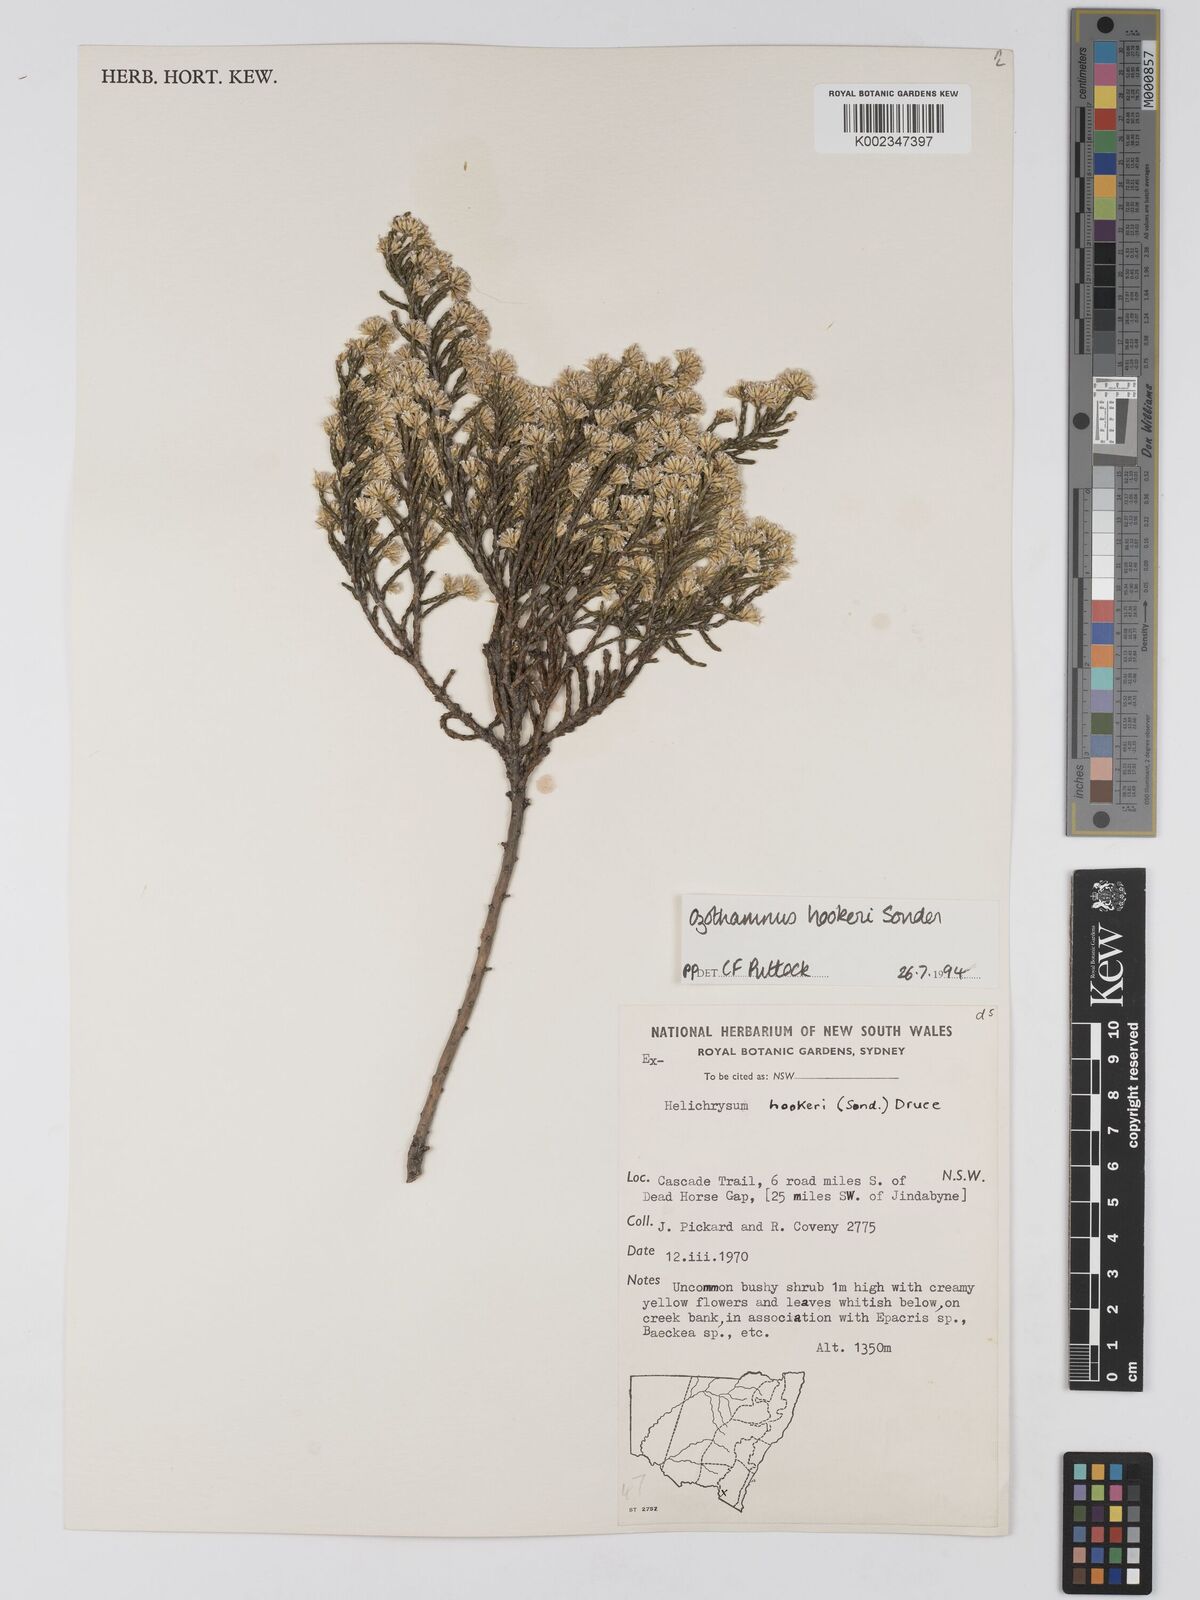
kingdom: Plantae
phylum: Tracheophyta
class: Magnoliopsida
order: Asterales
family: Asteraceae
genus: Ozothamnus
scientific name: Ozothamnus hookeri
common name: Kerosene-bush
